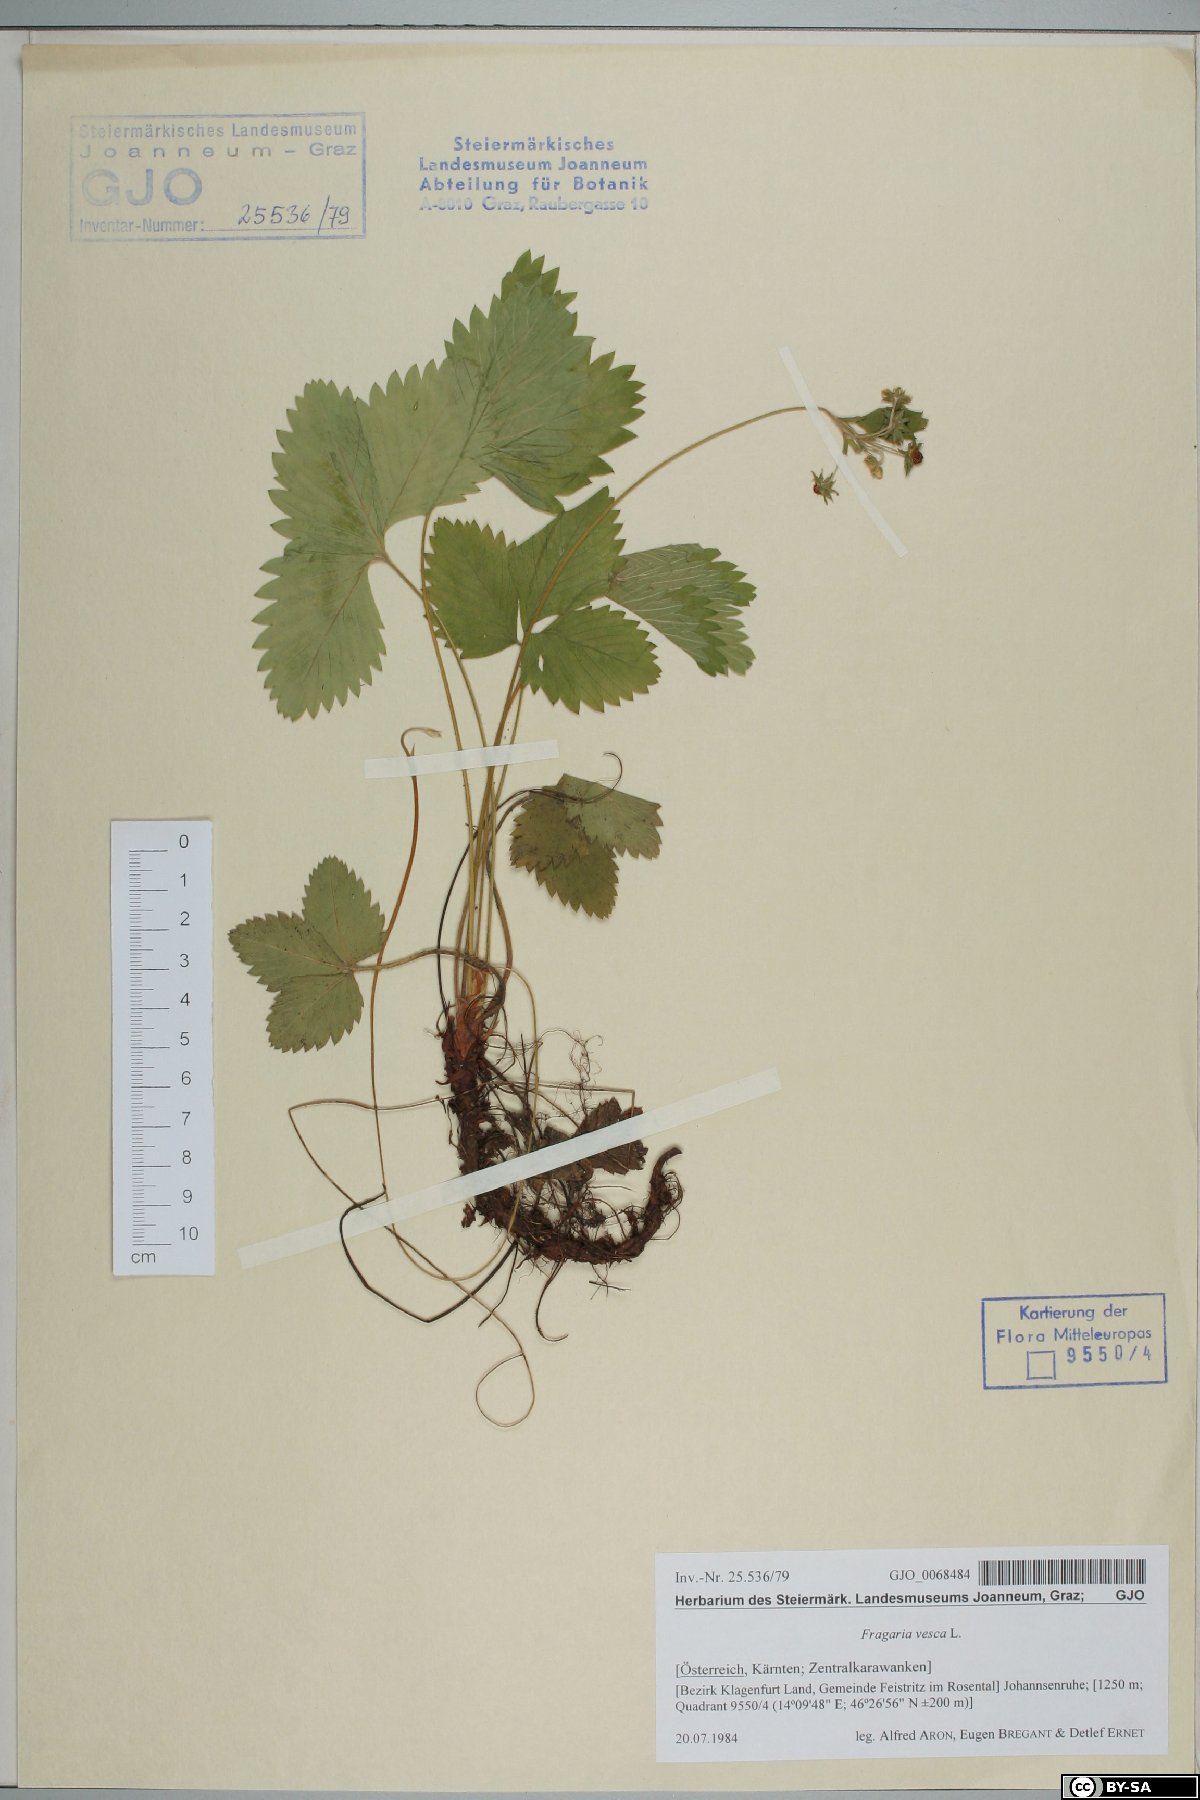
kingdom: Plantae
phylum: Tracheophyta
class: Magnoliopsida
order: Rosales
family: Rosaceae
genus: Fragaria
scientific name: Fragaria vesca
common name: Wild strawberry
